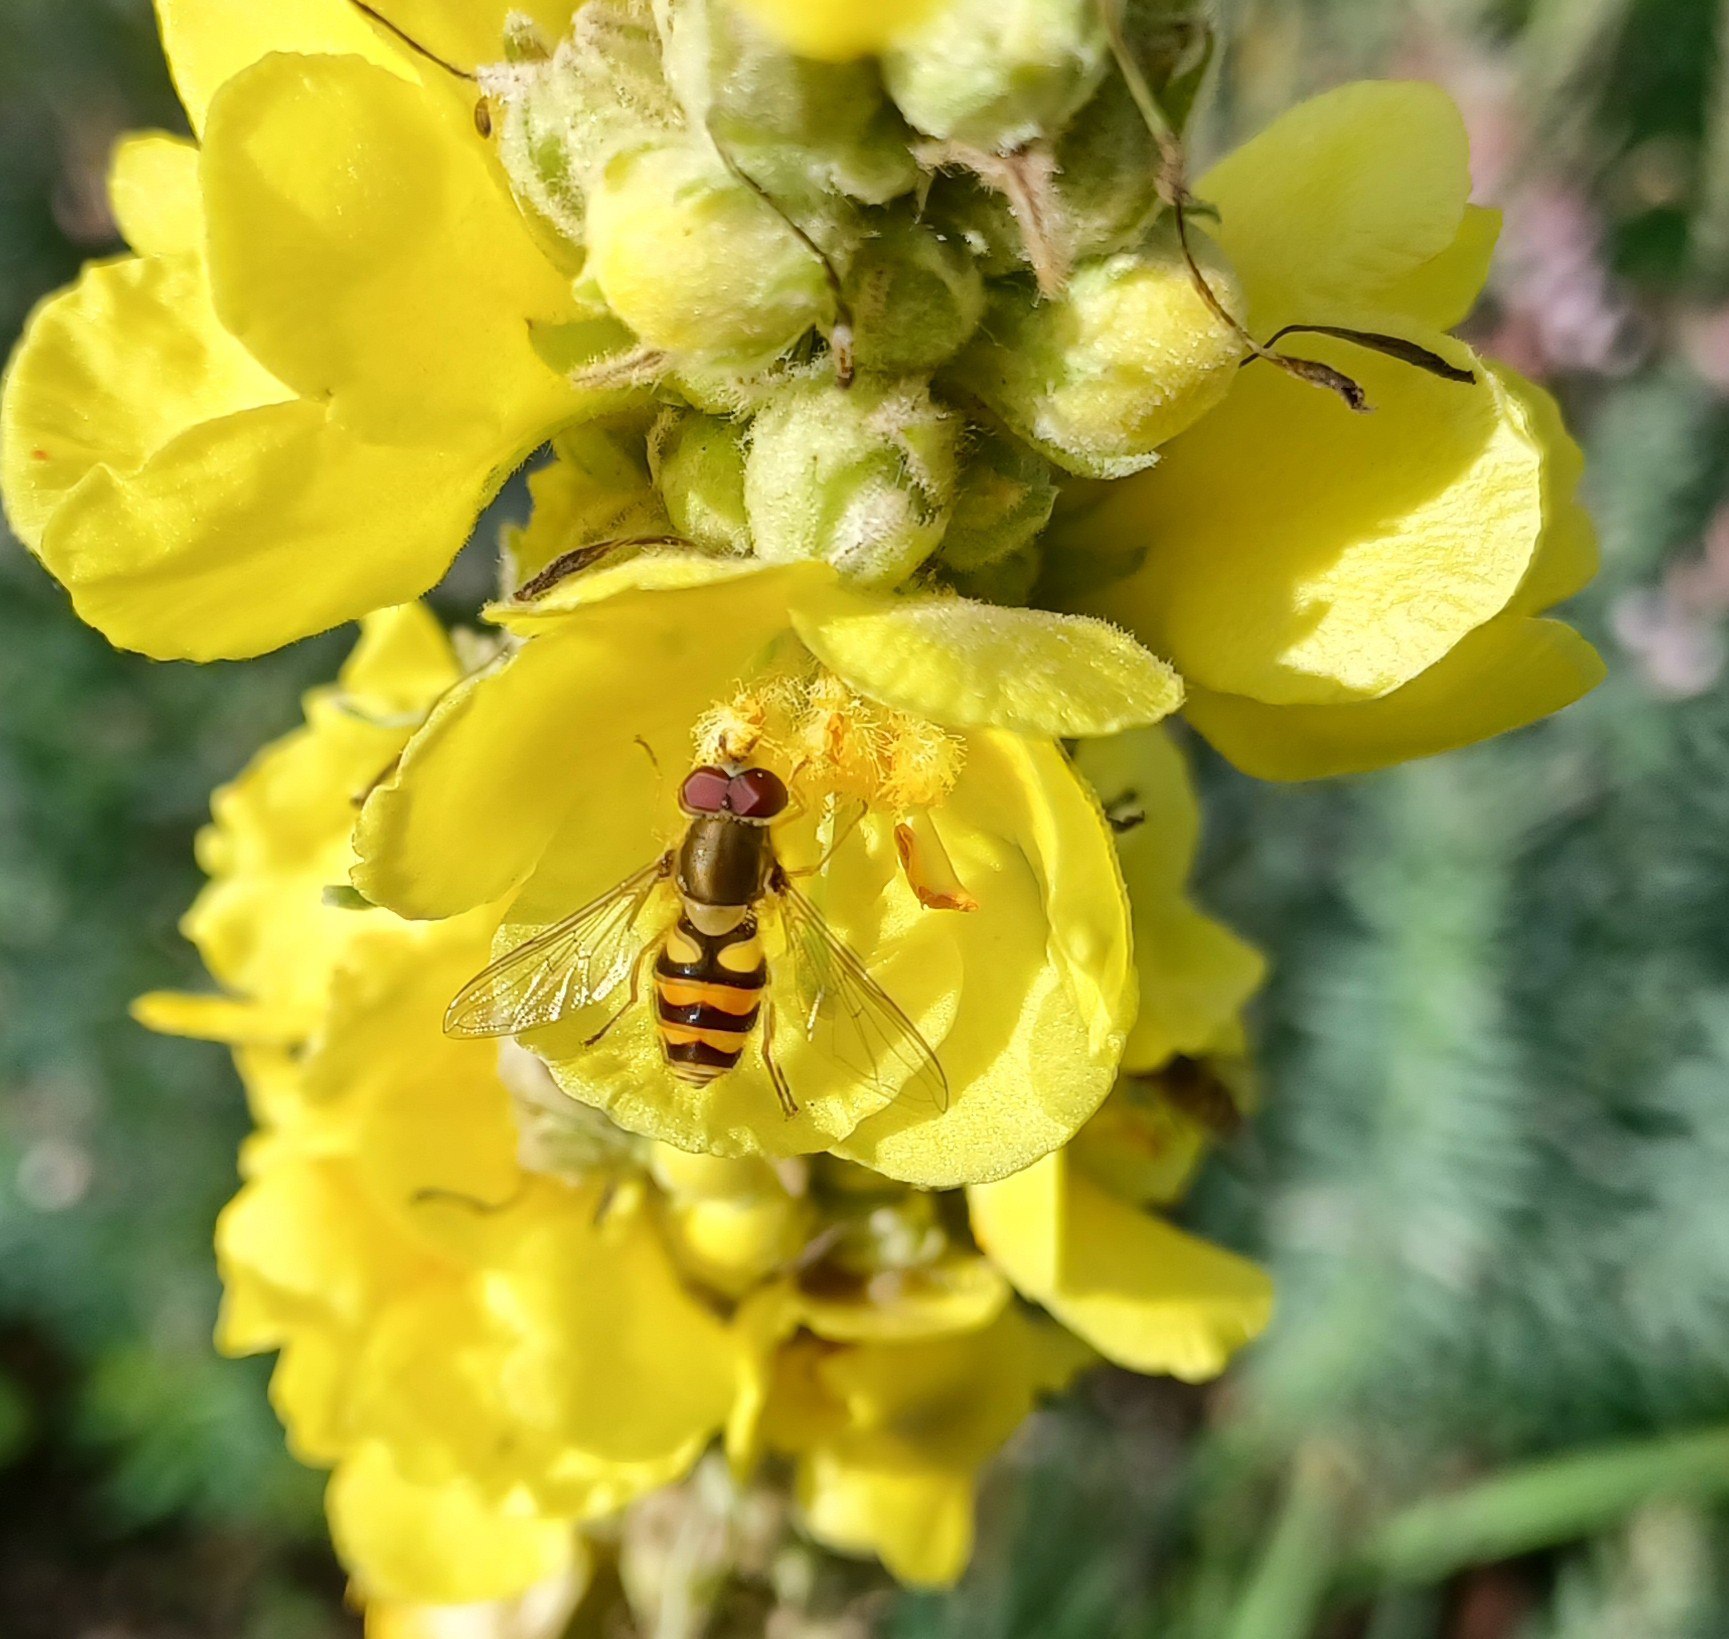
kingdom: Animalia
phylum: Arthropoda
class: Insecta
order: Diptera
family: Syrphidae
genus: Episyrphus
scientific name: Episyrphus balteatus
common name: Dobbeltbåndet svirreflue
